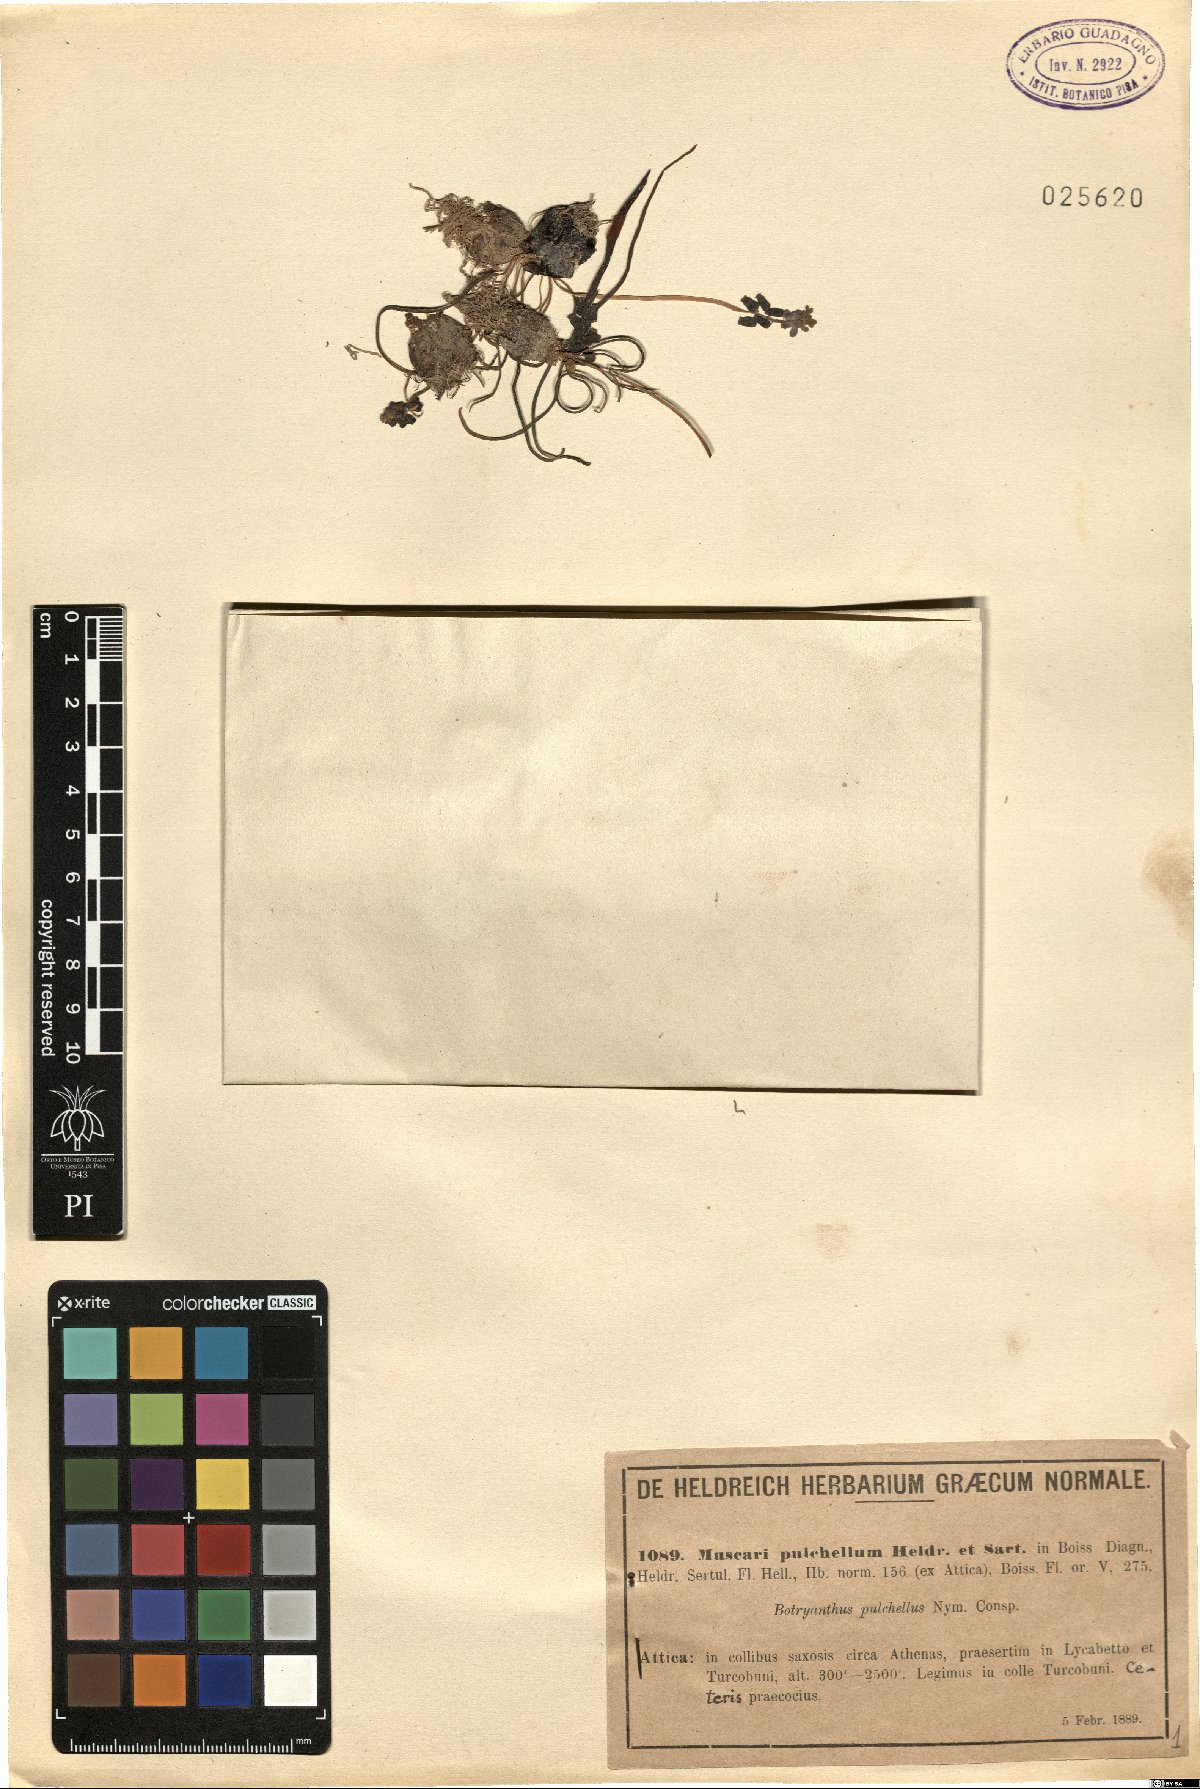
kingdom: Plantae
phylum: Tracheophyta
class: Liliopsida
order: Asparagales
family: Asparagaceae
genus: Muscari
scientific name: Muscari pulchellum
